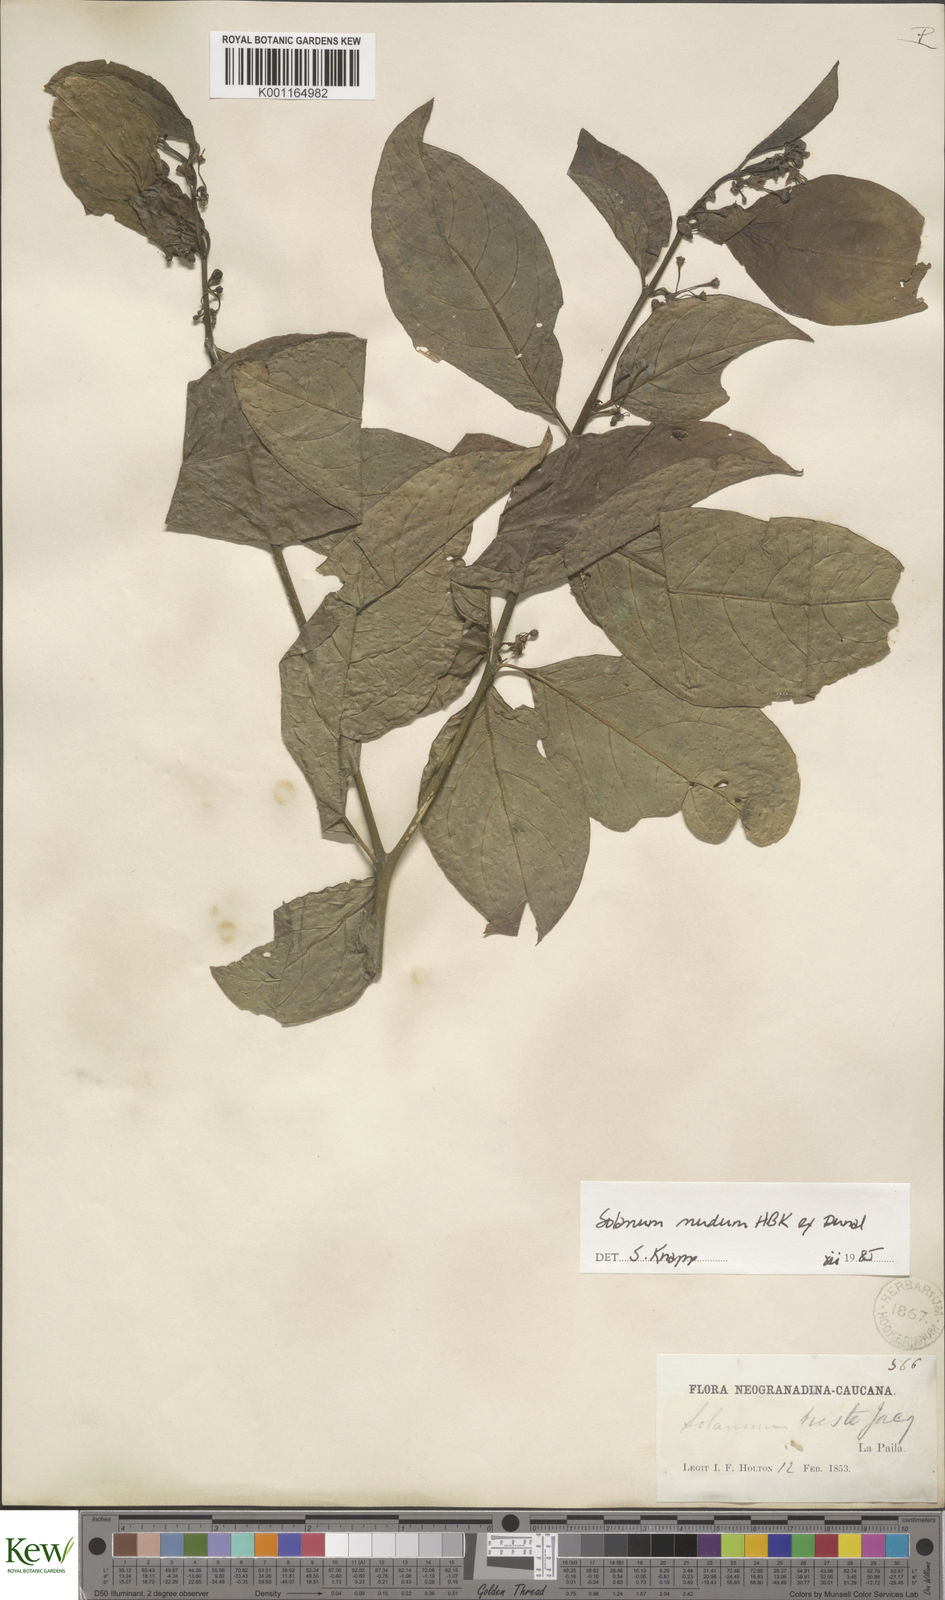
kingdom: Plantae
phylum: Tracheophyta
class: Magnoliopsida
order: Solanales
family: Solanaceae
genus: Solanum
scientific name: Solanum nudum
